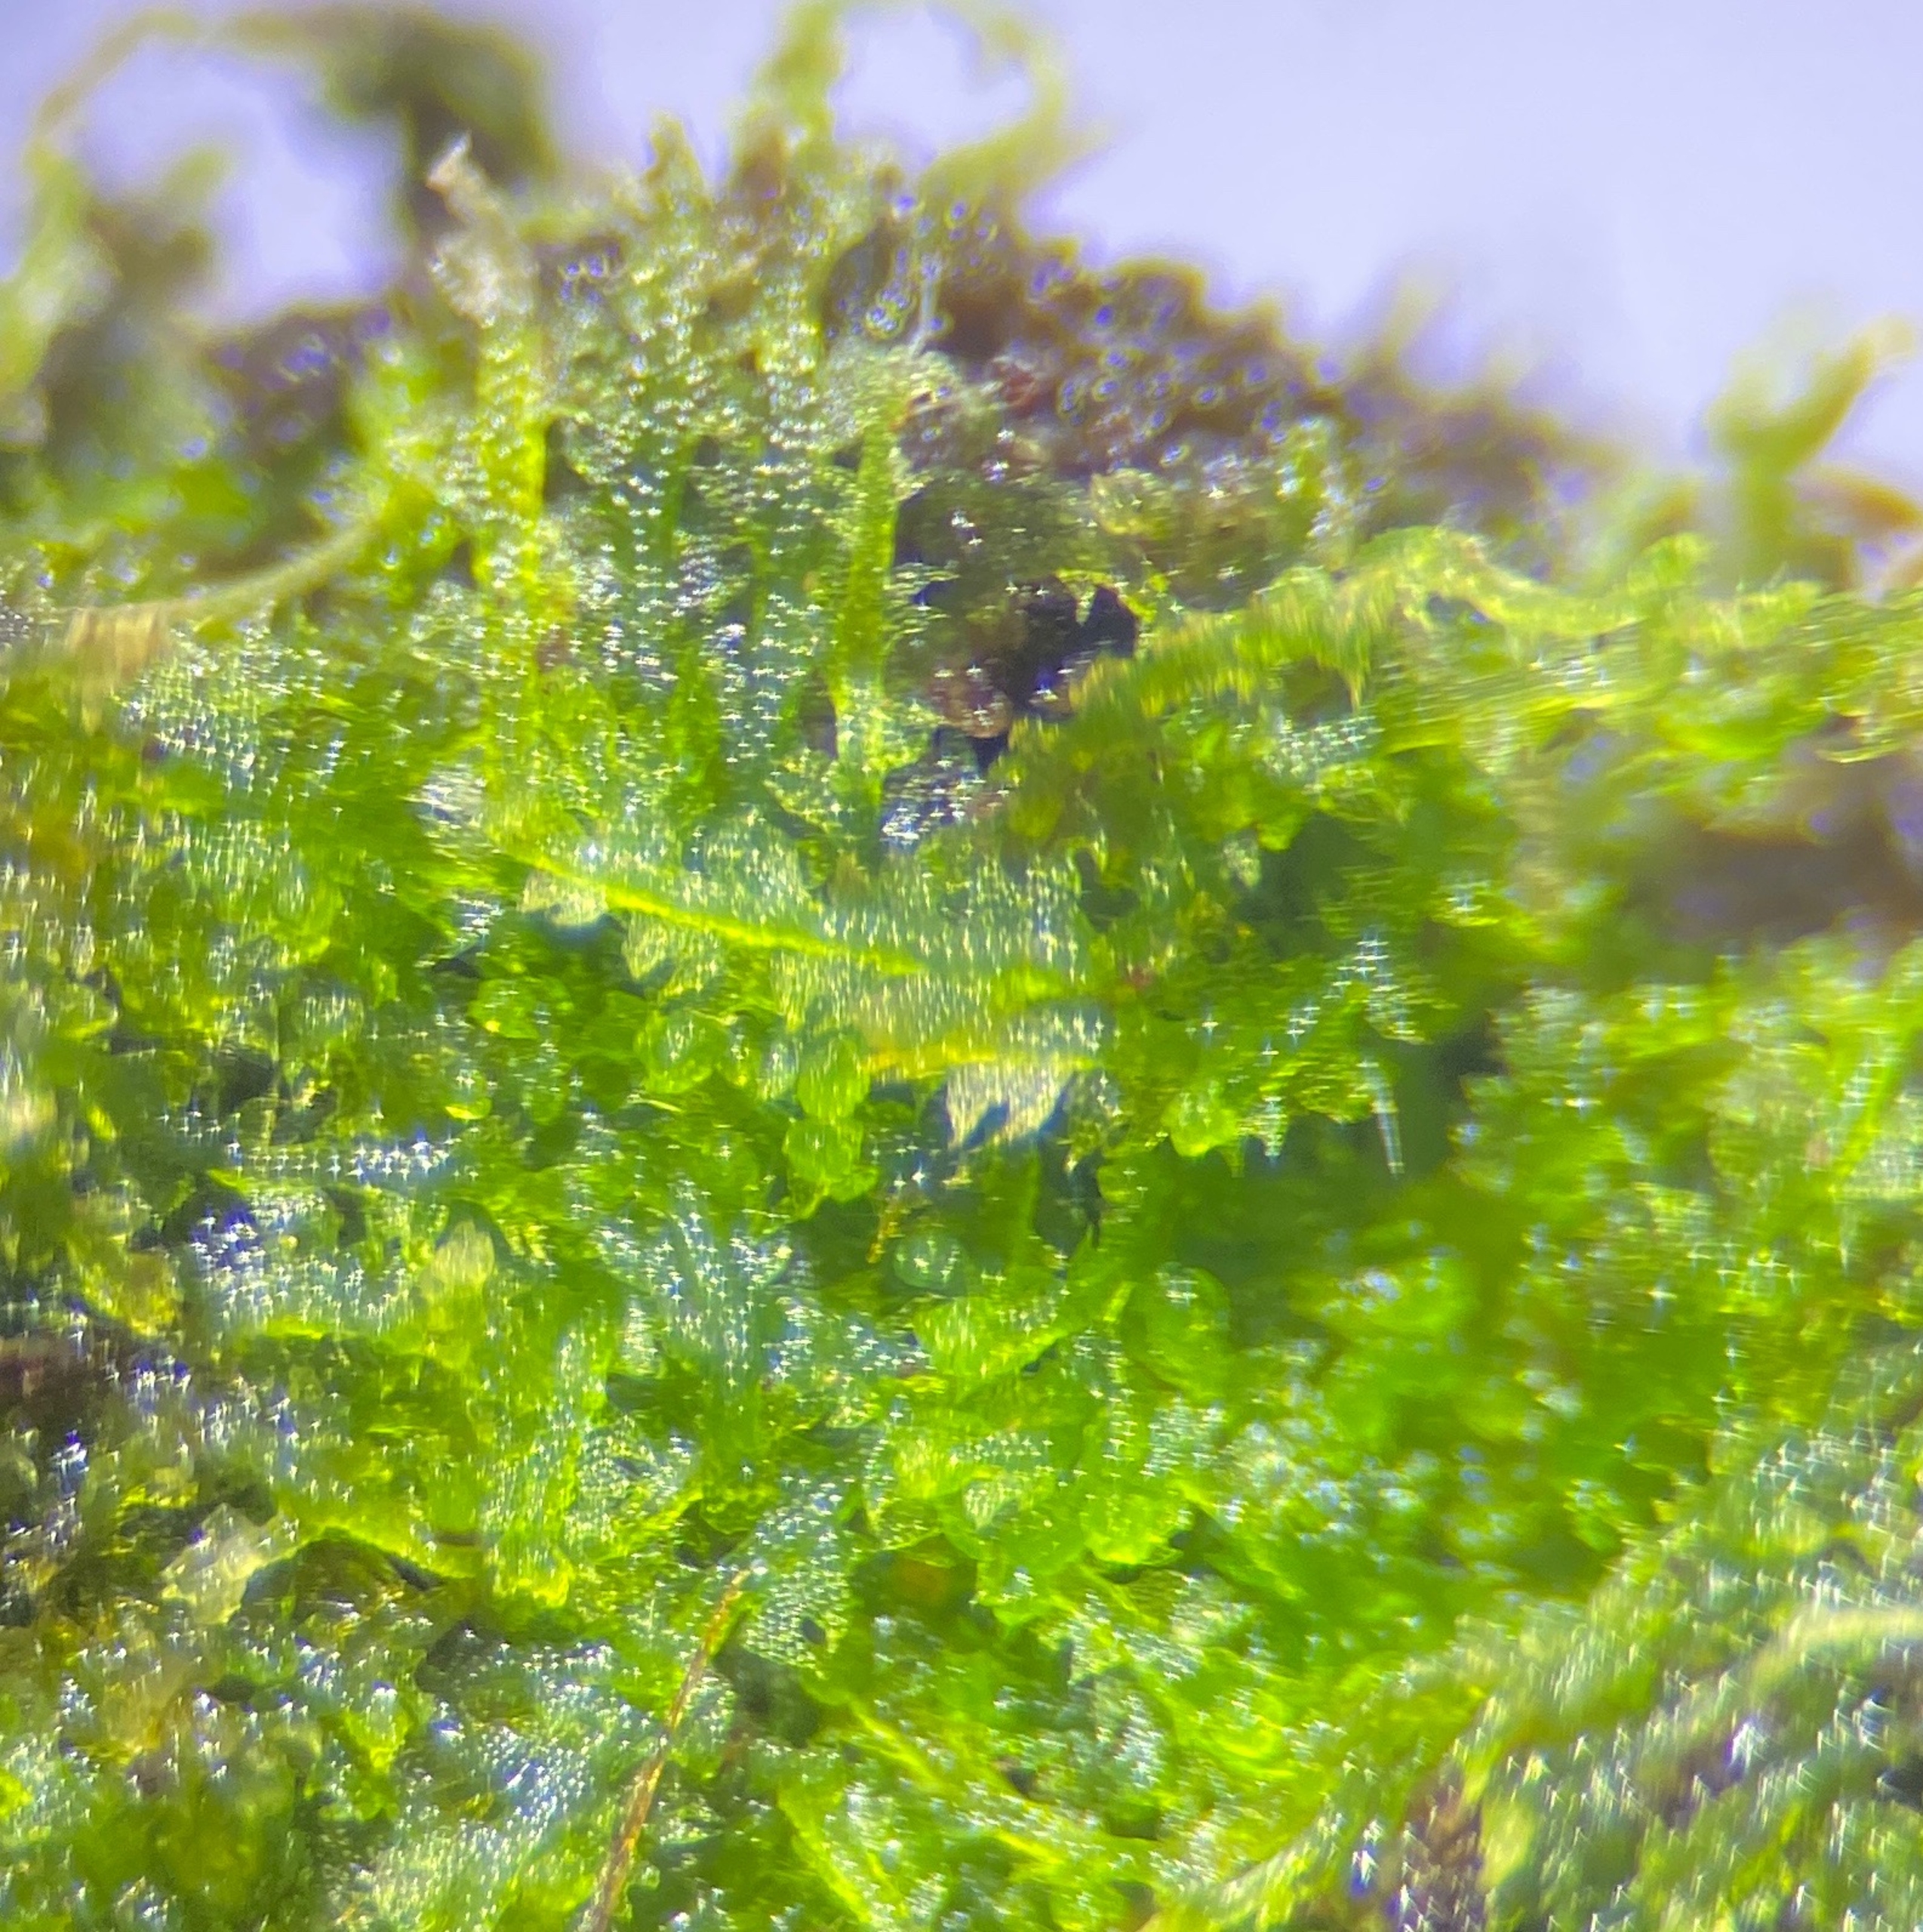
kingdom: Plantae
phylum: Marchantiophyta
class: Jungermanniopsida
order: Jungermanniales
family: Cephaloziaceae
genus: Fuscocephaloziopsis
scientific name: Fuscocephaloziopsis connivens
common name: Flad kantbæger
